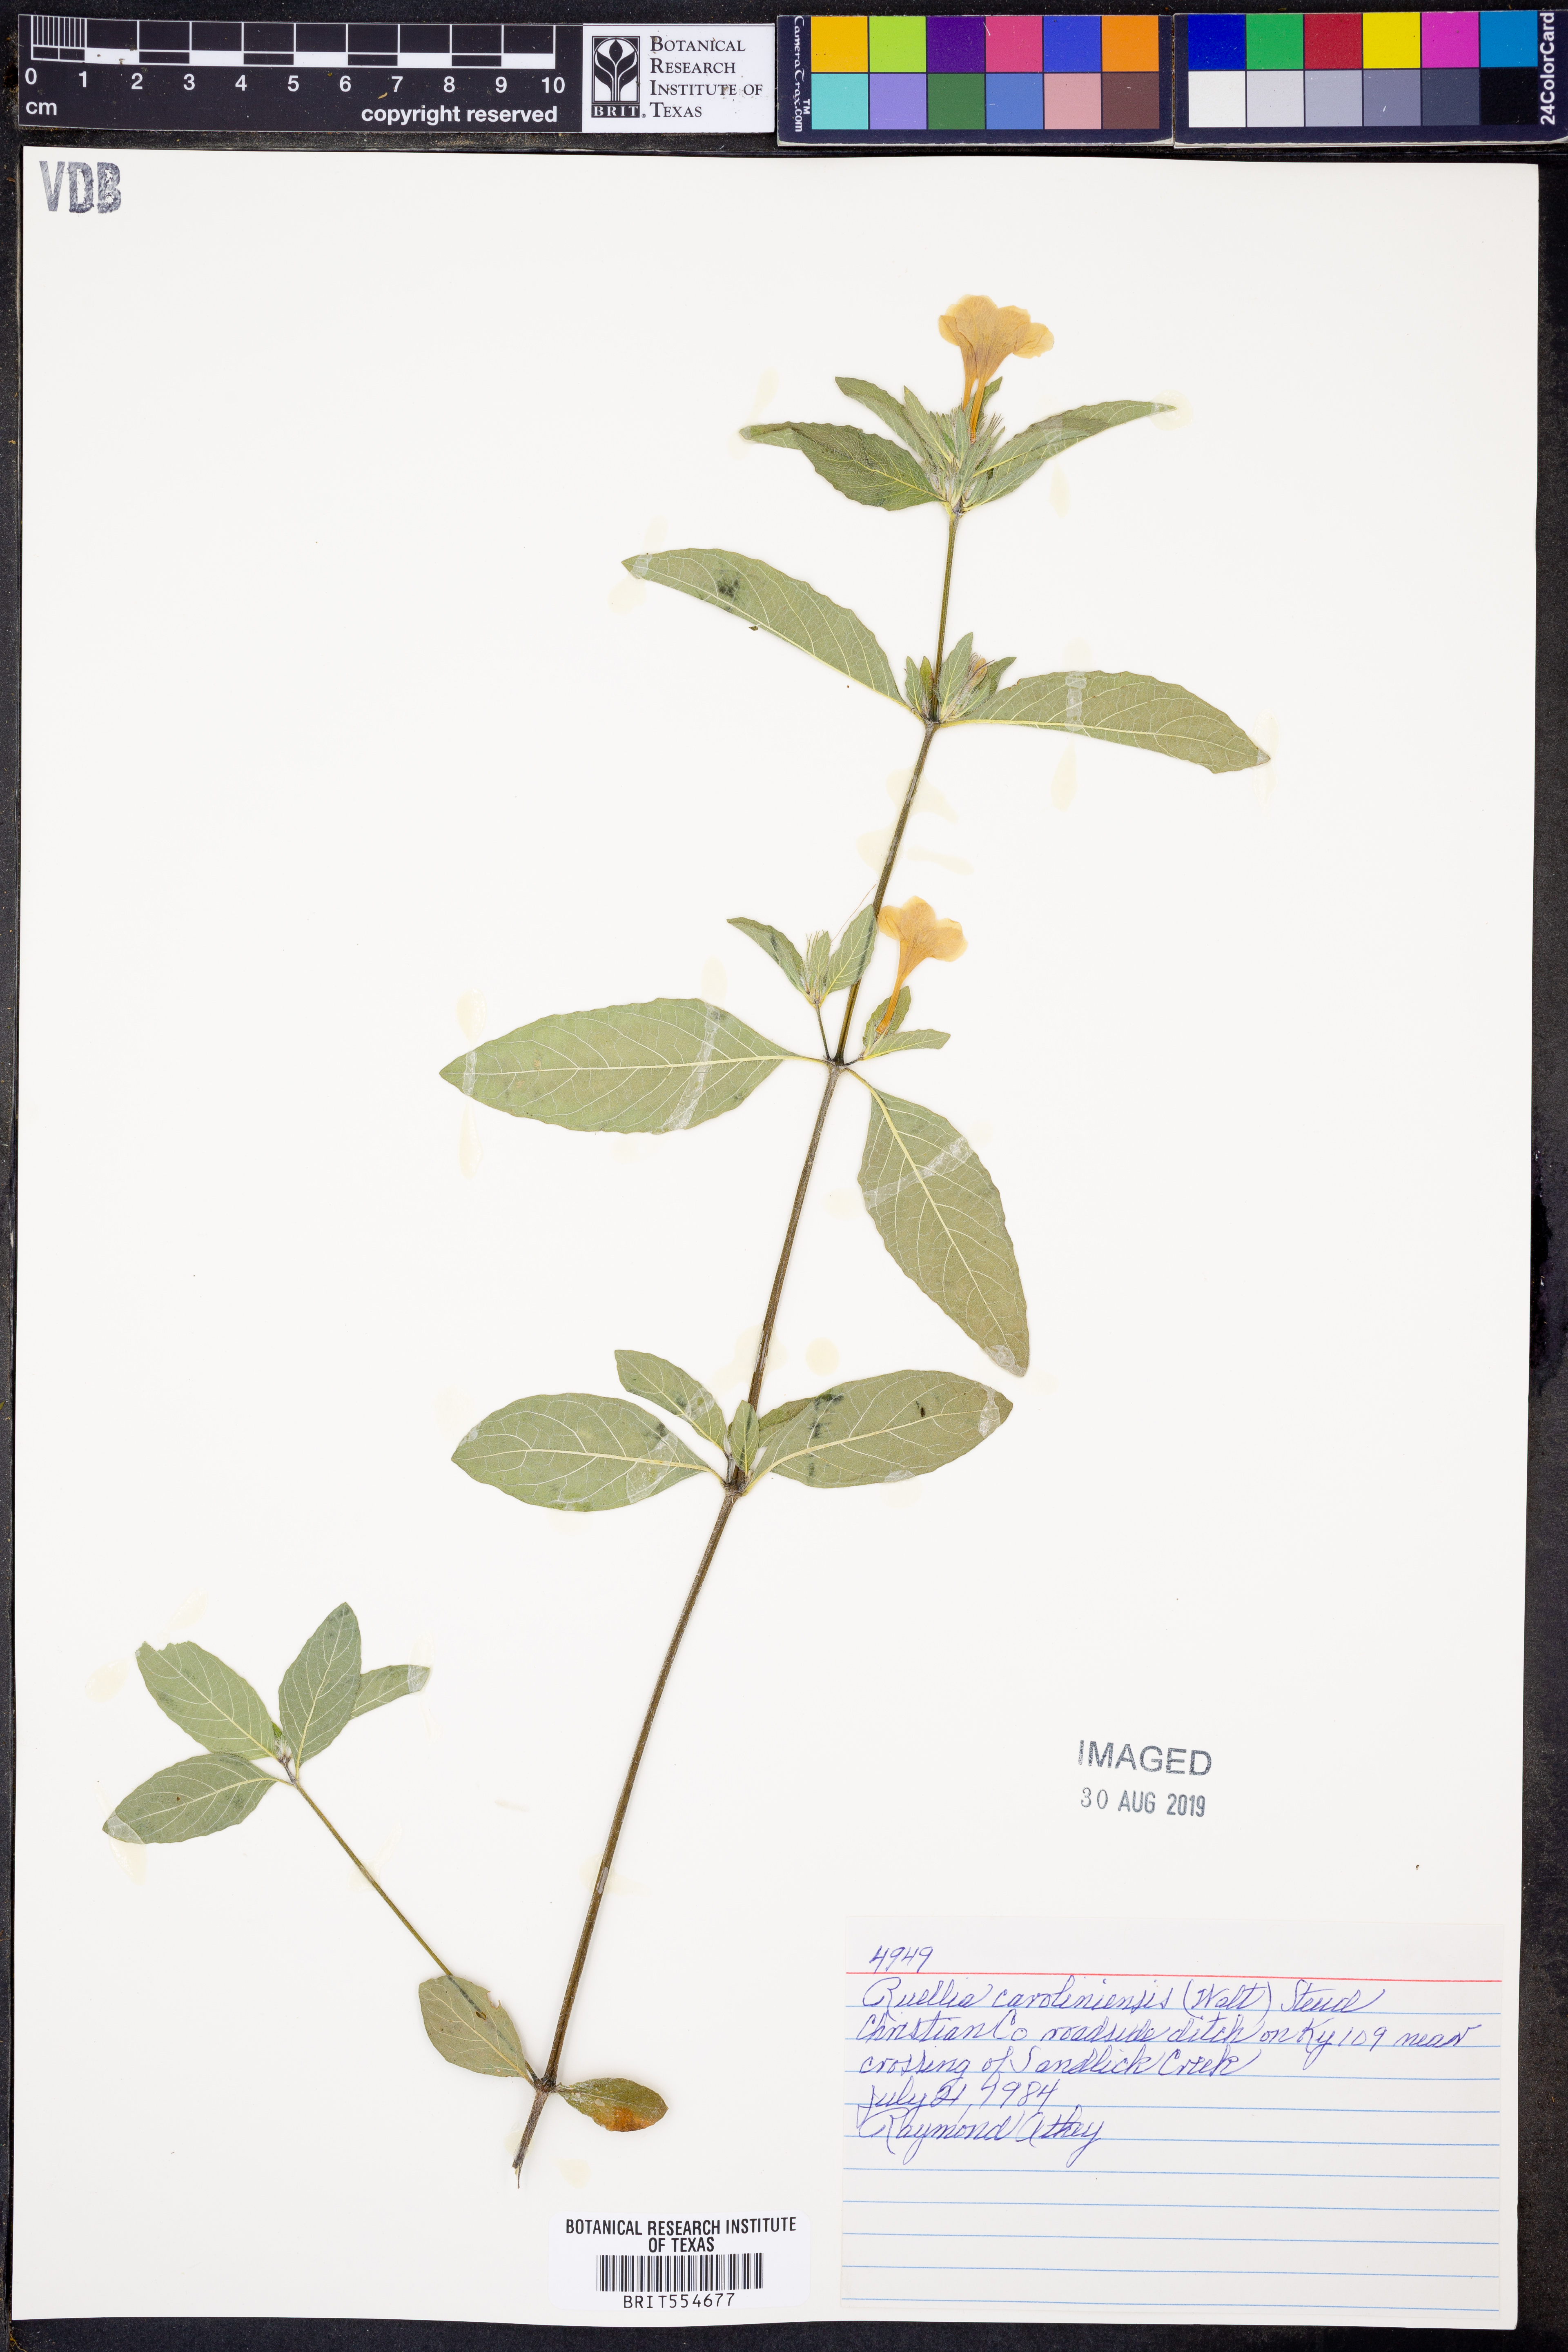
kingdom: Plantae
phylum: Tracheophyta
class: Magnoliopsida
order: Lamiales
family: Acanthaceae
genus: Ruellia
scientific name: Ruellia caroliniensis
